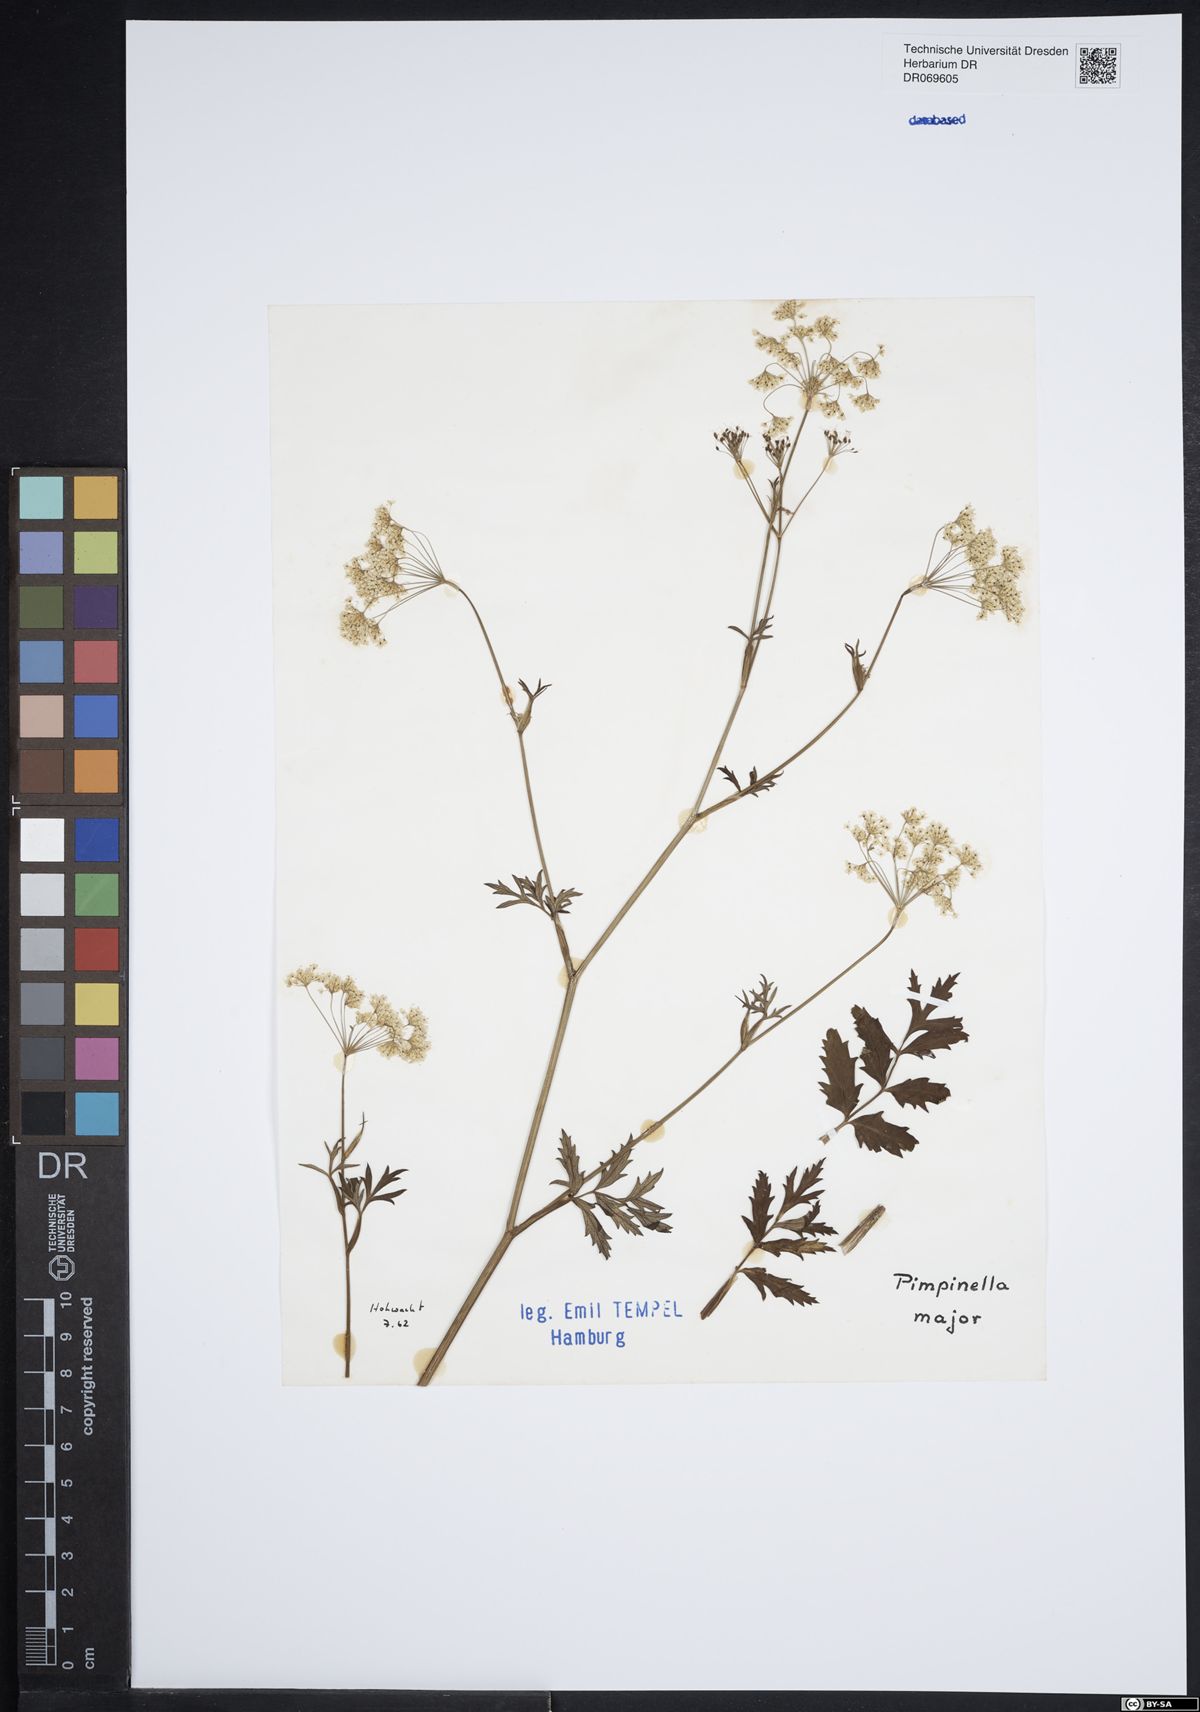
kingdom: Plantae
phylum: Tracheophyta
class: Magnoliopsida
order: Apiales
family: Apiaceae
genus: Pimpinella
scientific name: Pimpinella major
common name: Greater burnet-saxifrage
